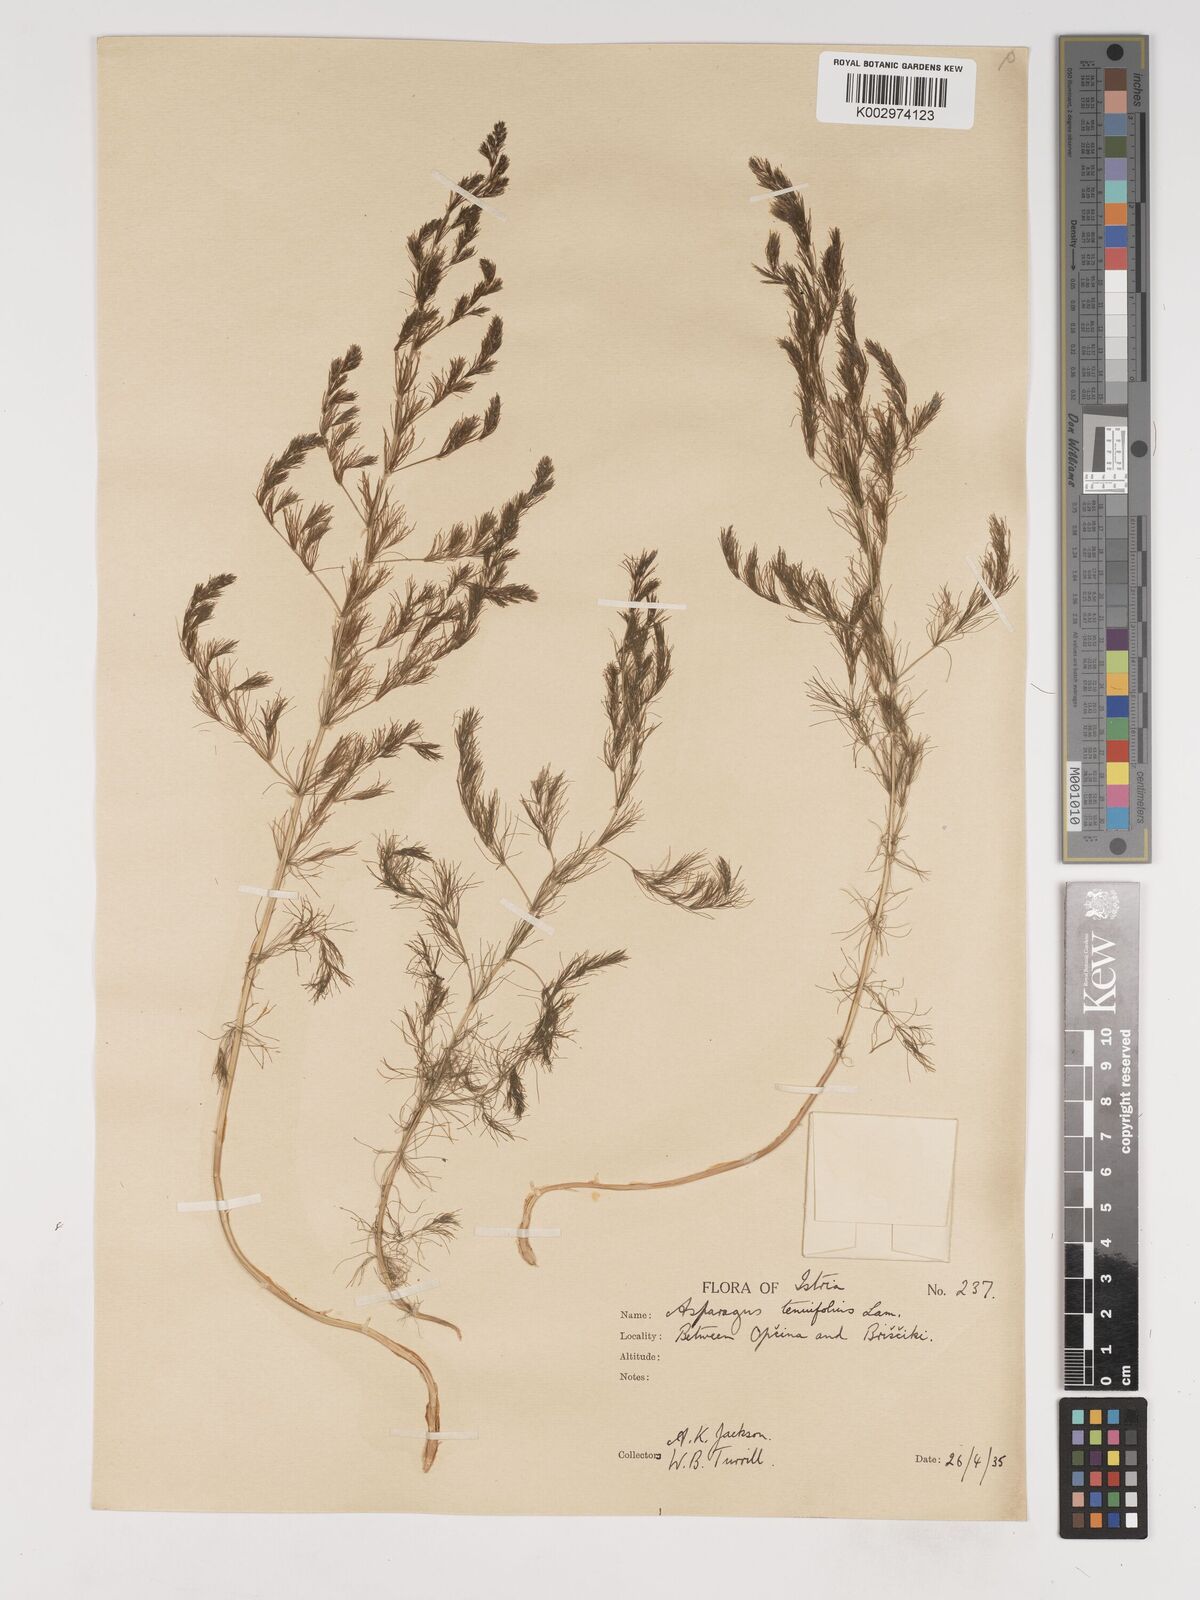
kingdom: Plantae
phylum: Tracheophyta
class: Liliopsida
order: Asparagales
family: Asparagaceae
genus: Asparagus
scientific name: Asparagus tenuifolius
